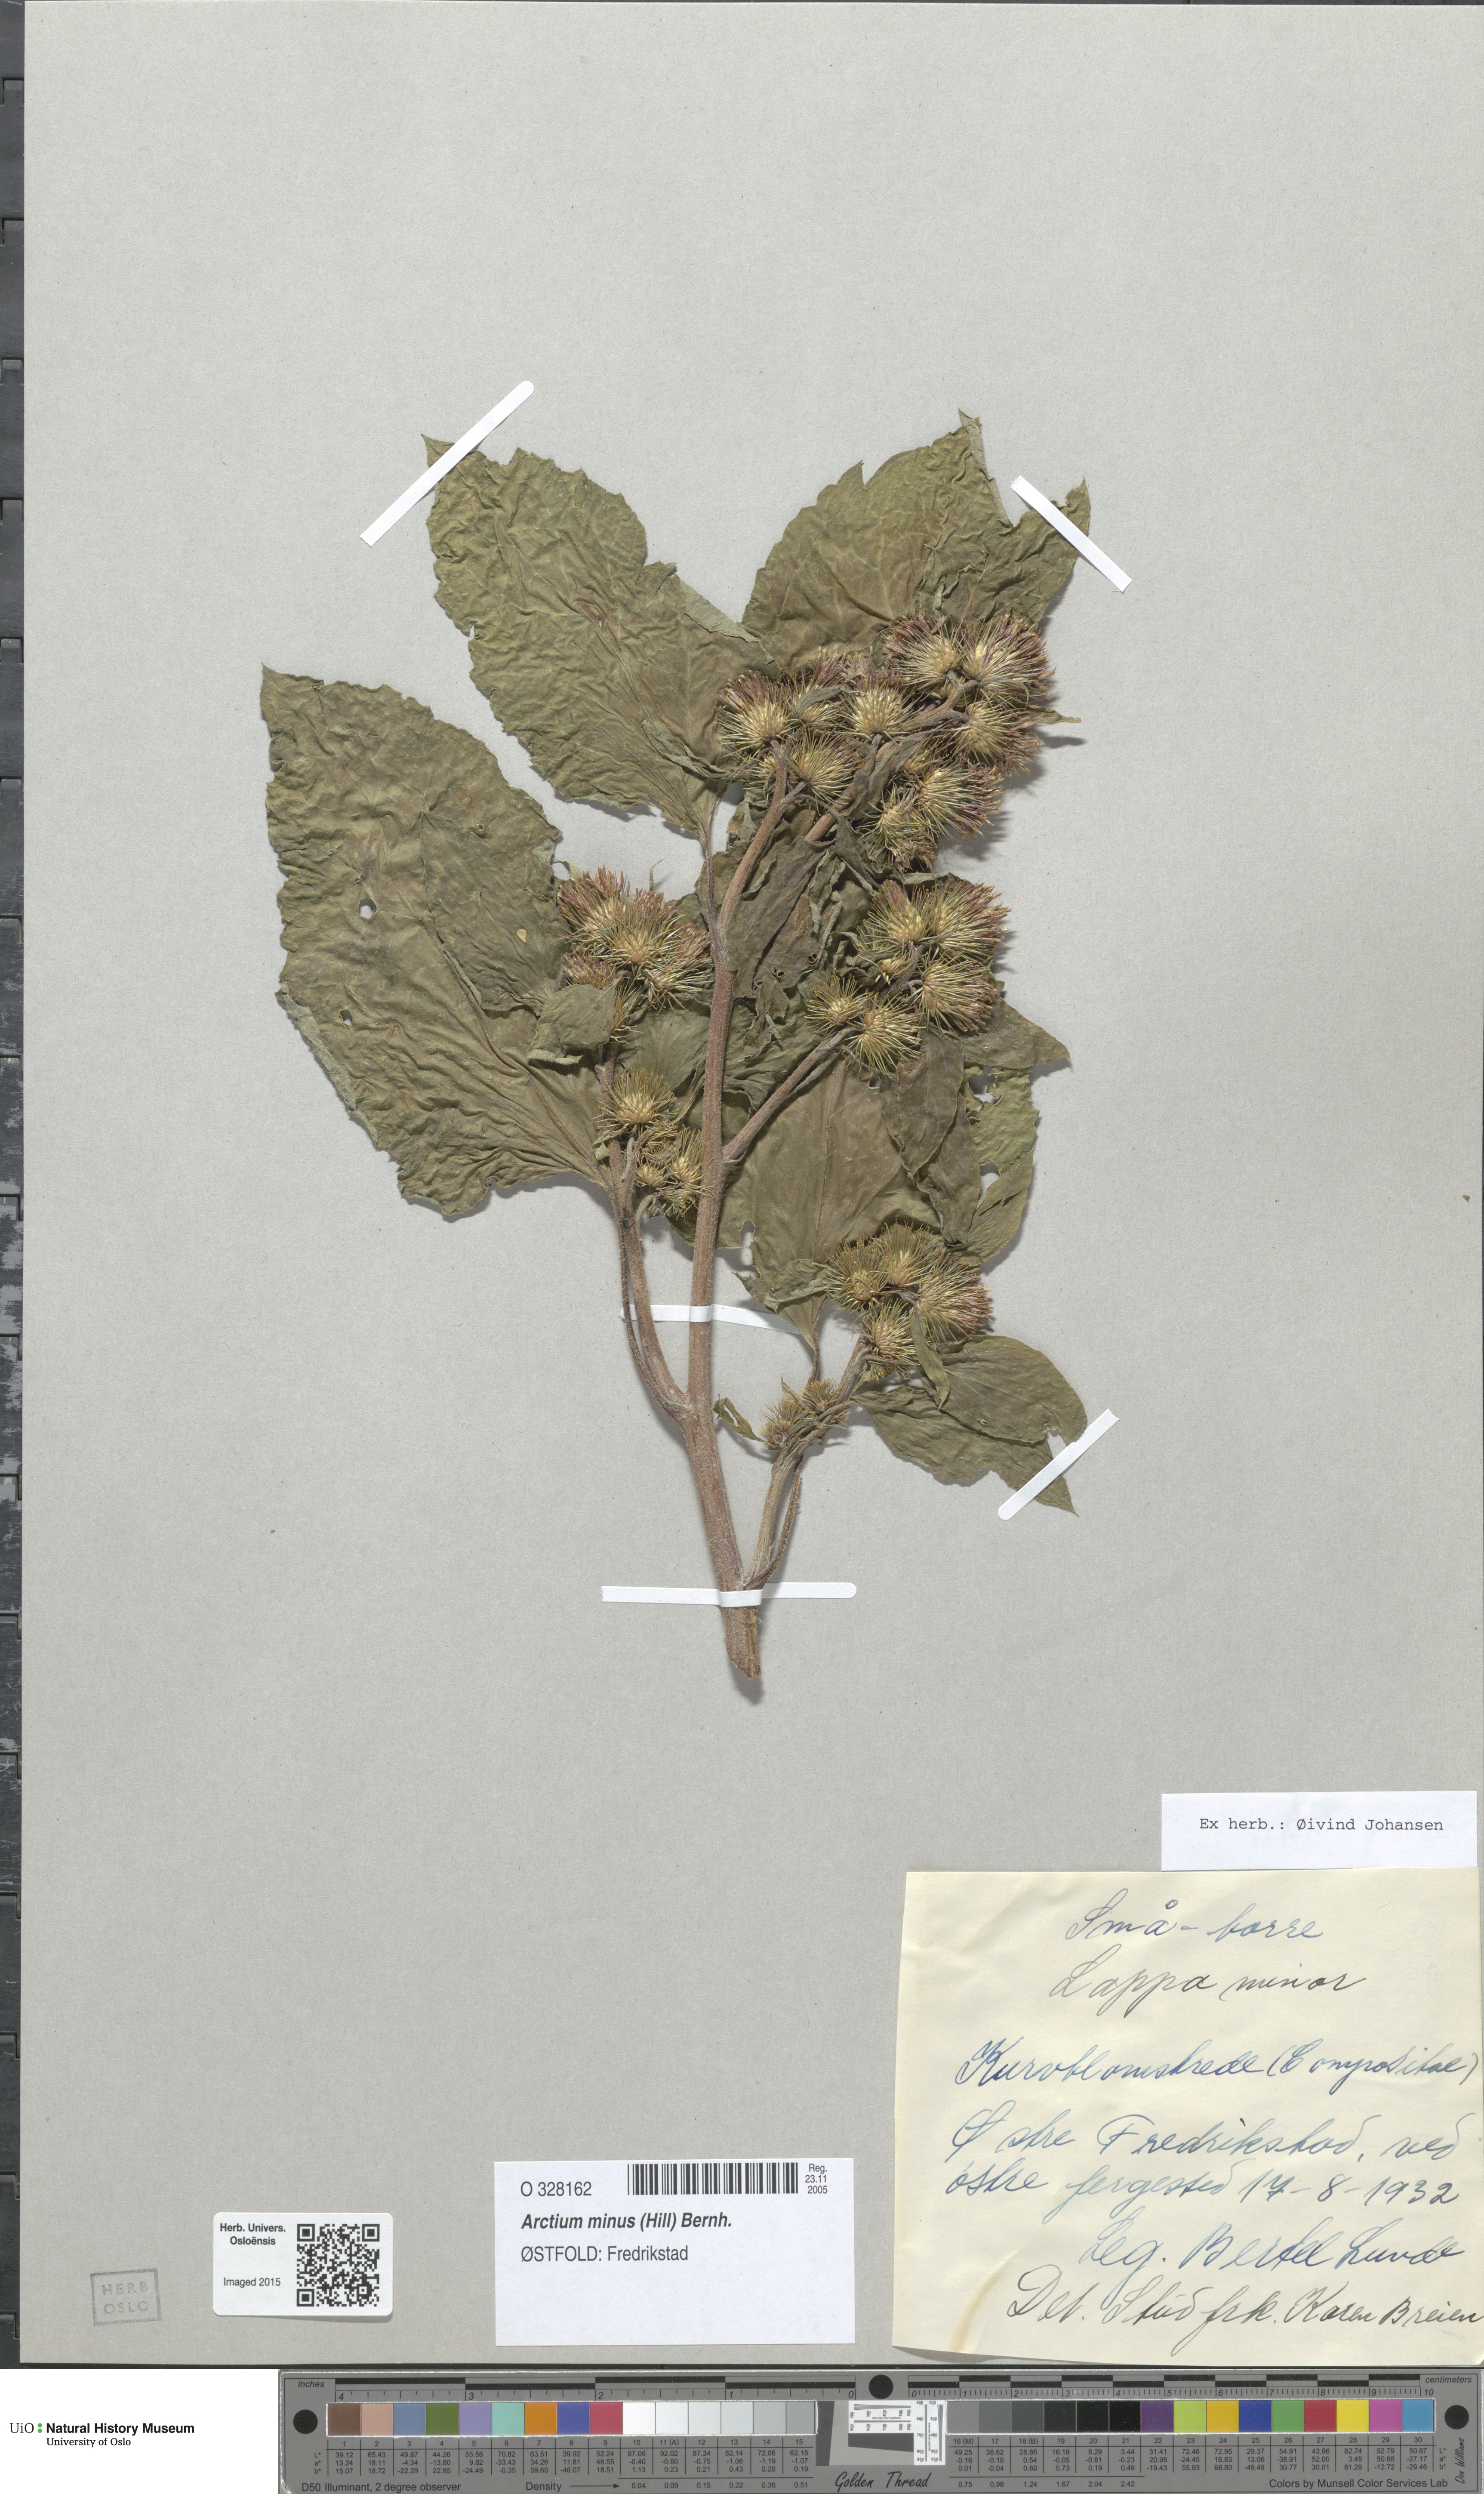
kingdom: Plantae
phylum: Tracheophyta
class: Magnoliopsida
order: Asterales
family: Asteraceae
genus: Arctium
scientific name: Arctium minus
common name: Lesser burdock
